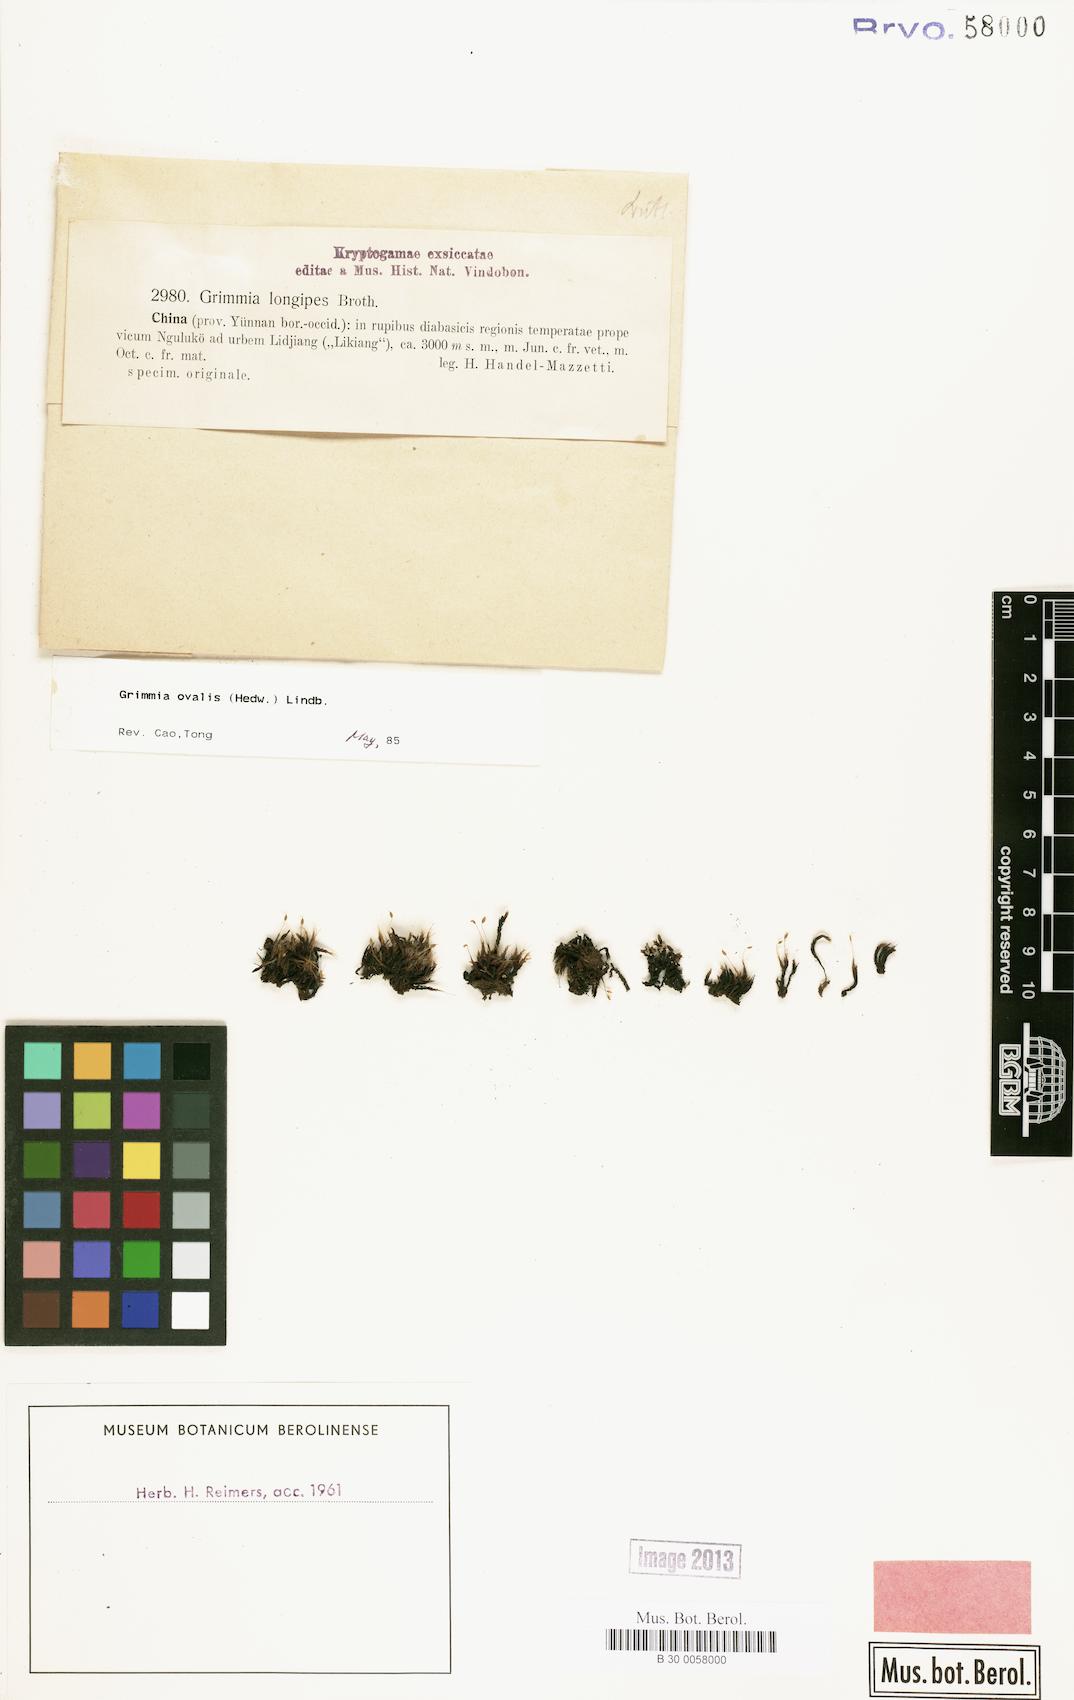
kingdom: Plantae
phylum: Bryophyta
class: Bryopsida
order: Grimmiales
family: Grimmiaceae
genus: Grimmia
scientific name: Grimmia ovalis
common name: Oval grimmia
